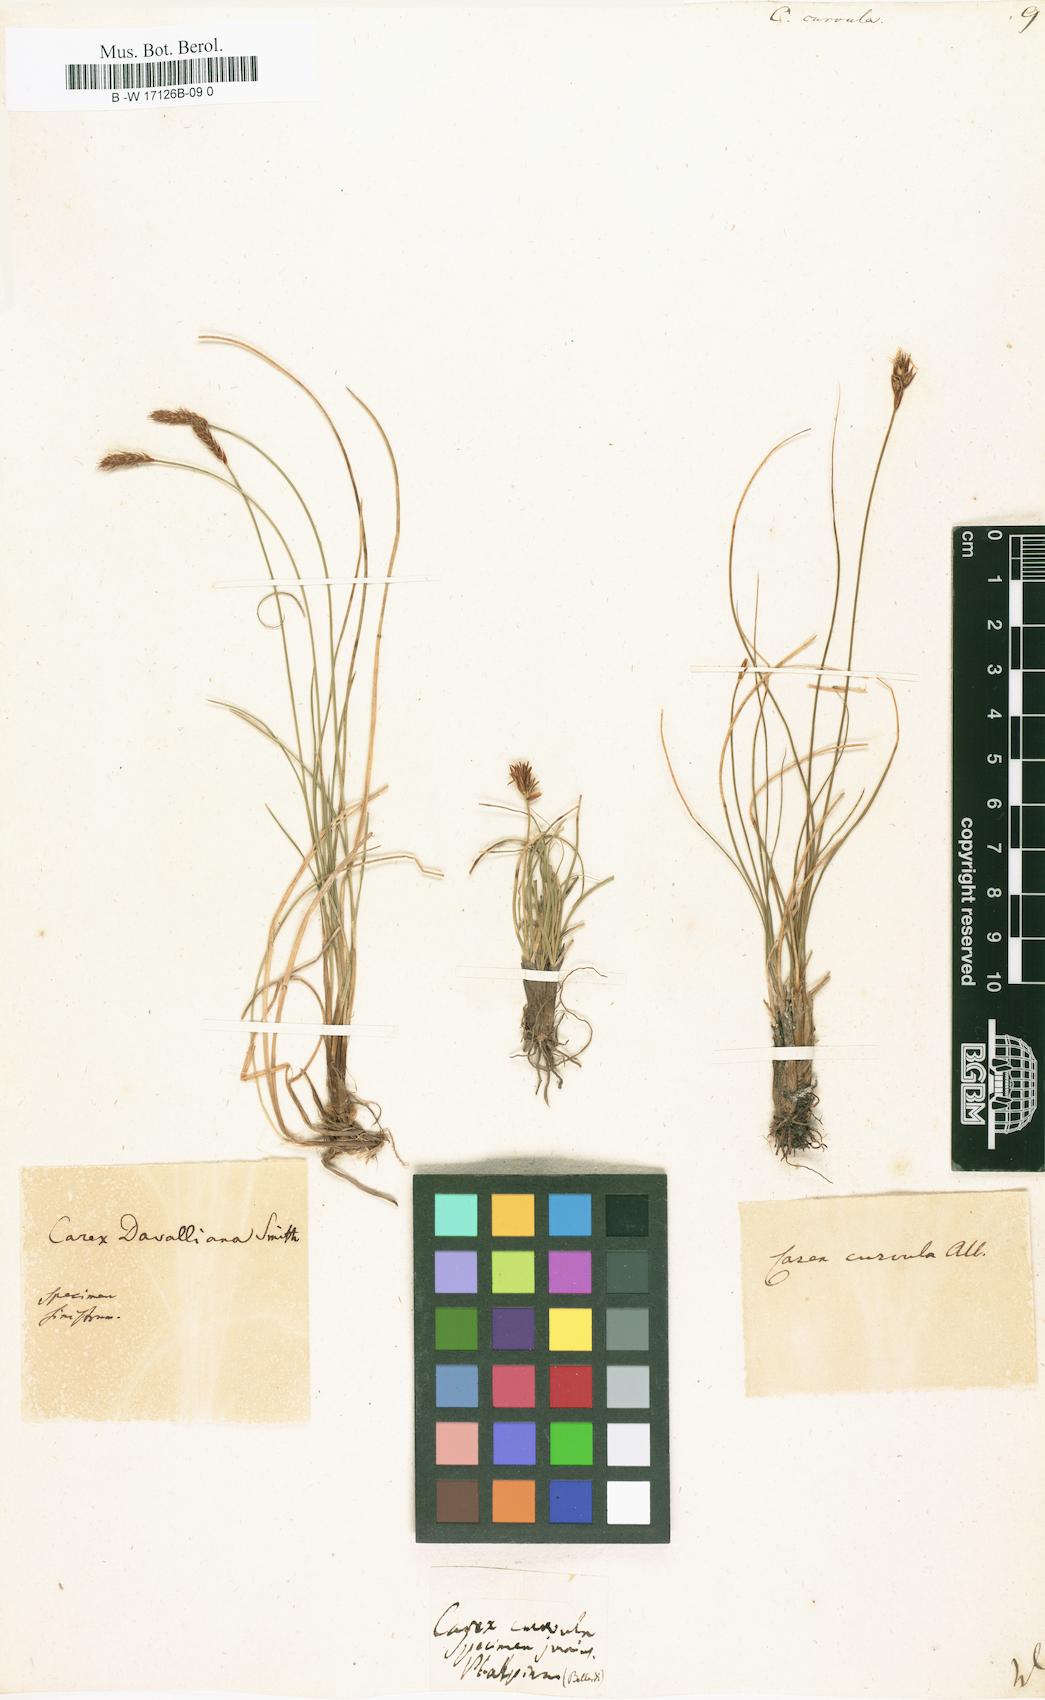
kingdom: Plantae
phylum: Tracheophyta
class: Liliopsida
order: Poales
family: Cyperaceae
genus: Carex
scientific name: Carex curvula
